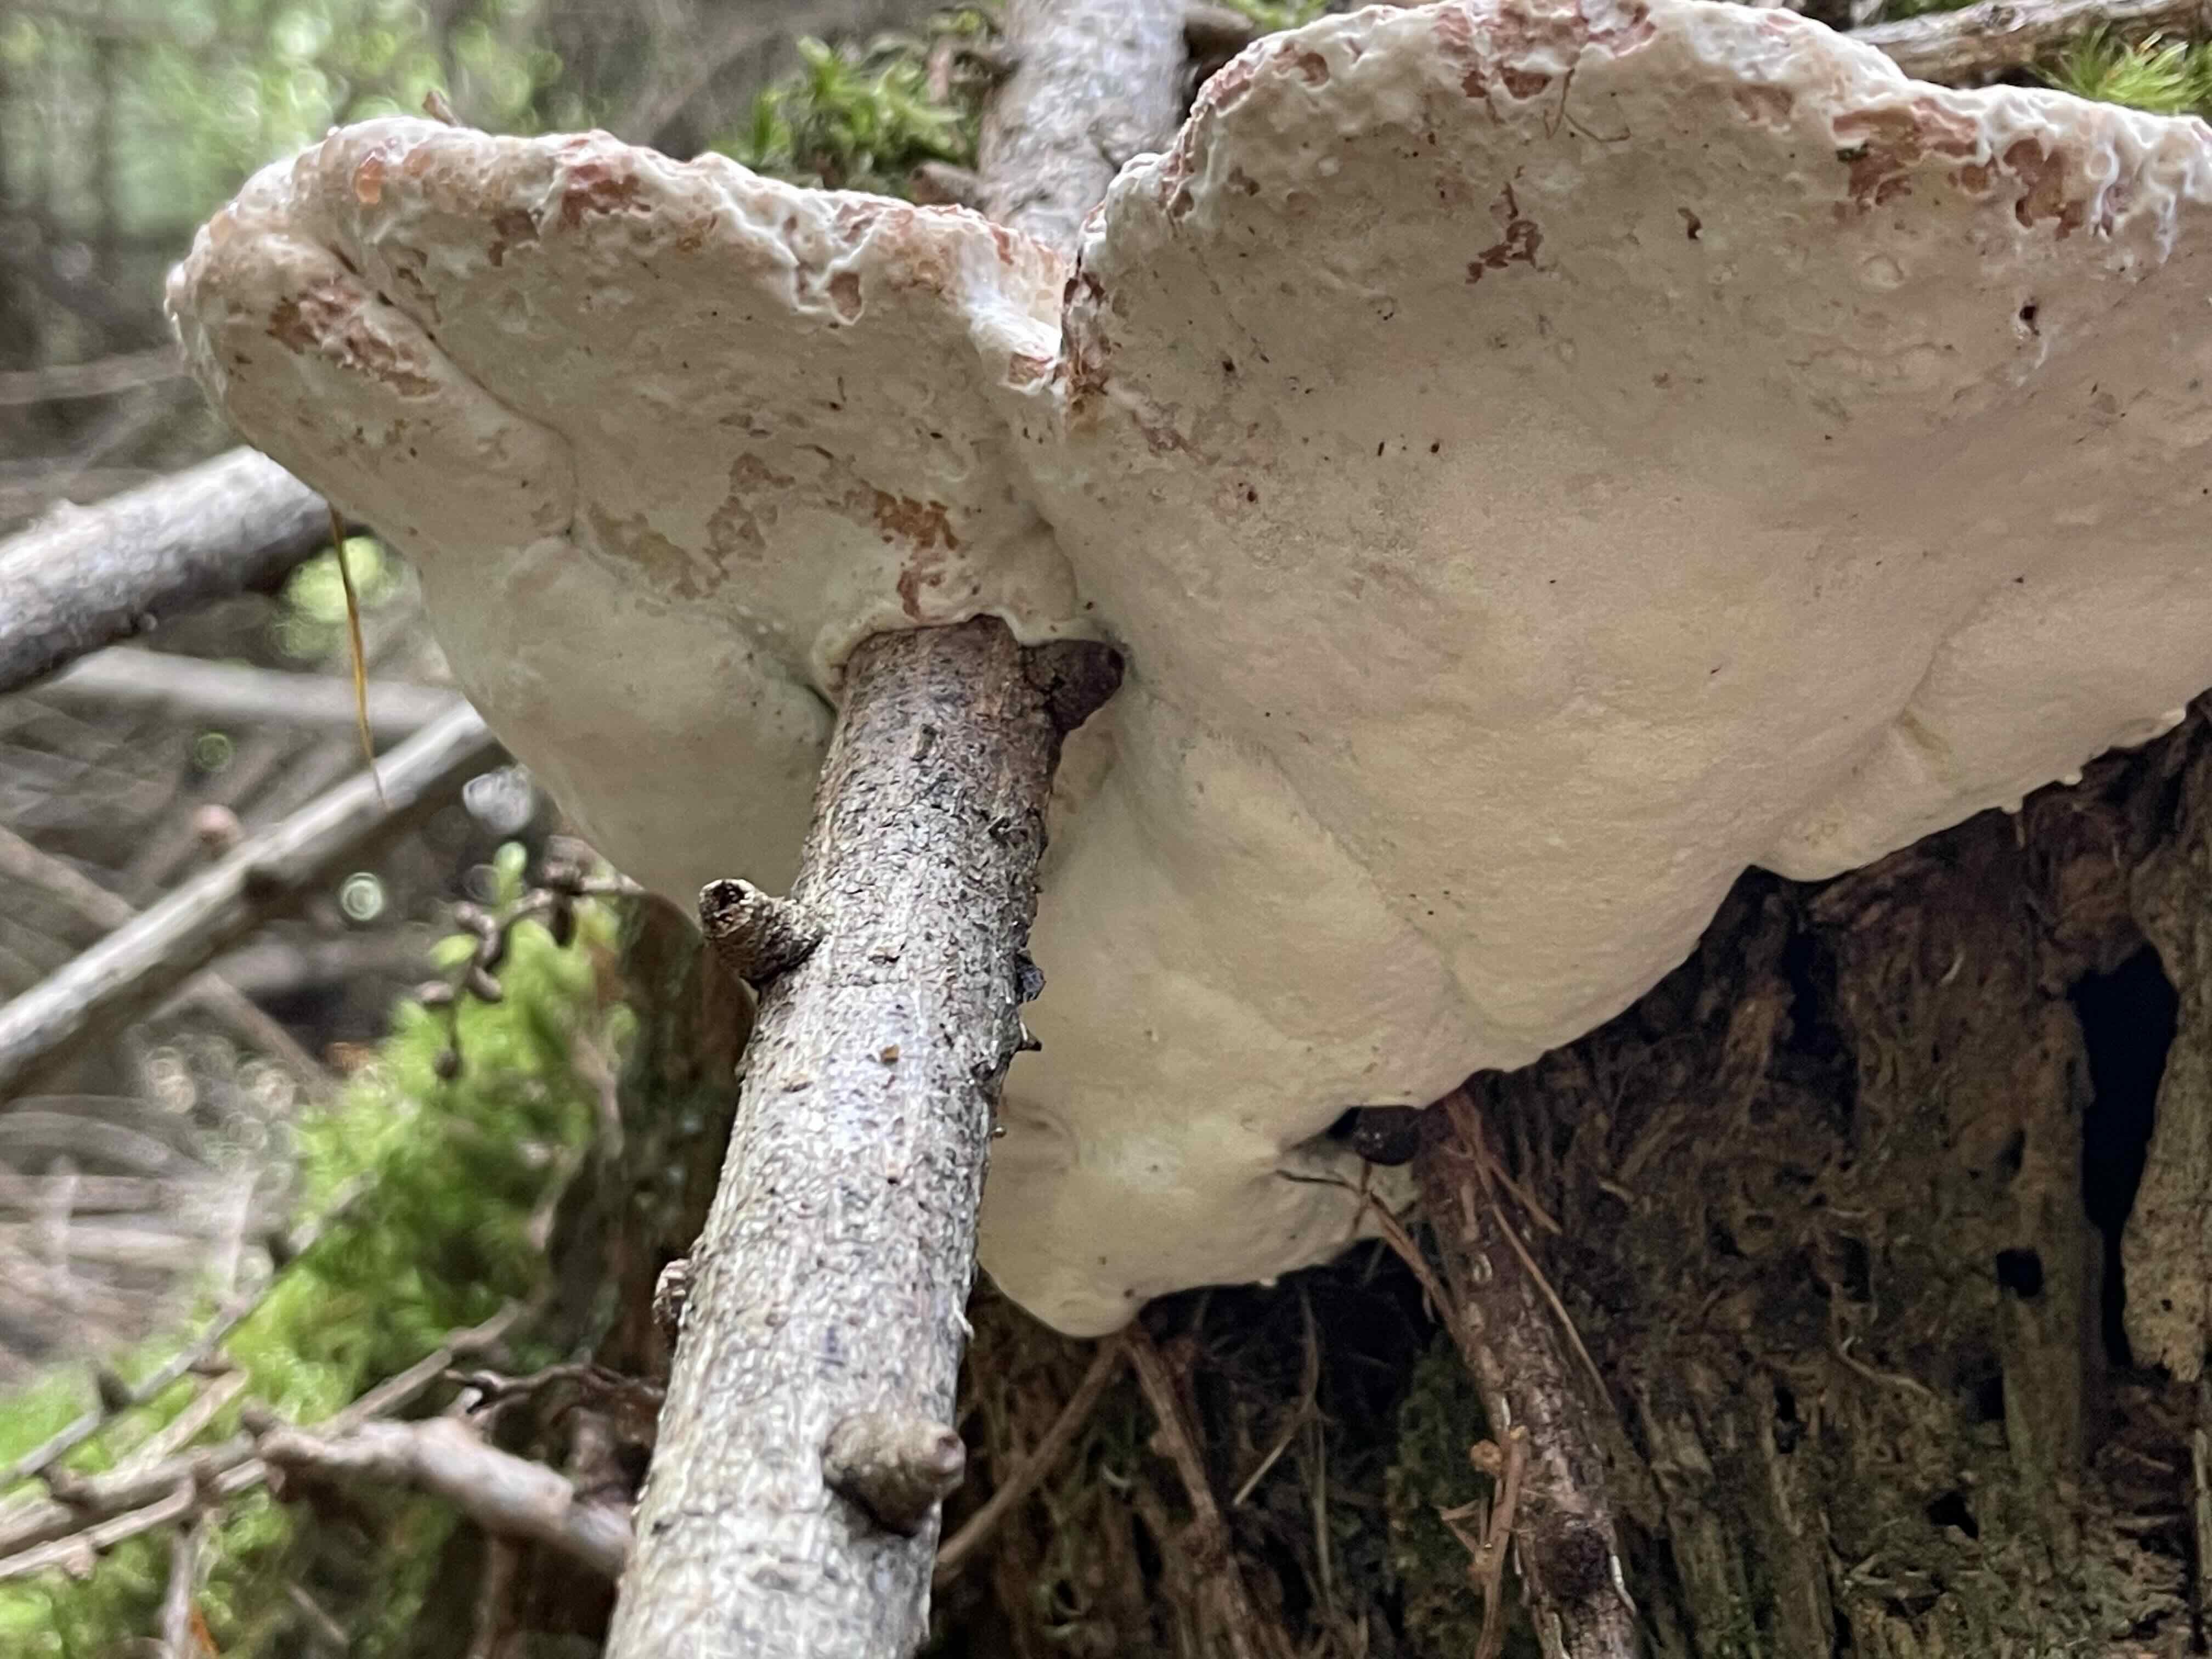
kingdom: Fungi
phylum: Basidiomycota
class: Agaricomycetes
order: Polyporales
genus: Calcipostia
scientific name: Calcipostia guttulata
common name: dråbe-kødporesvamp
